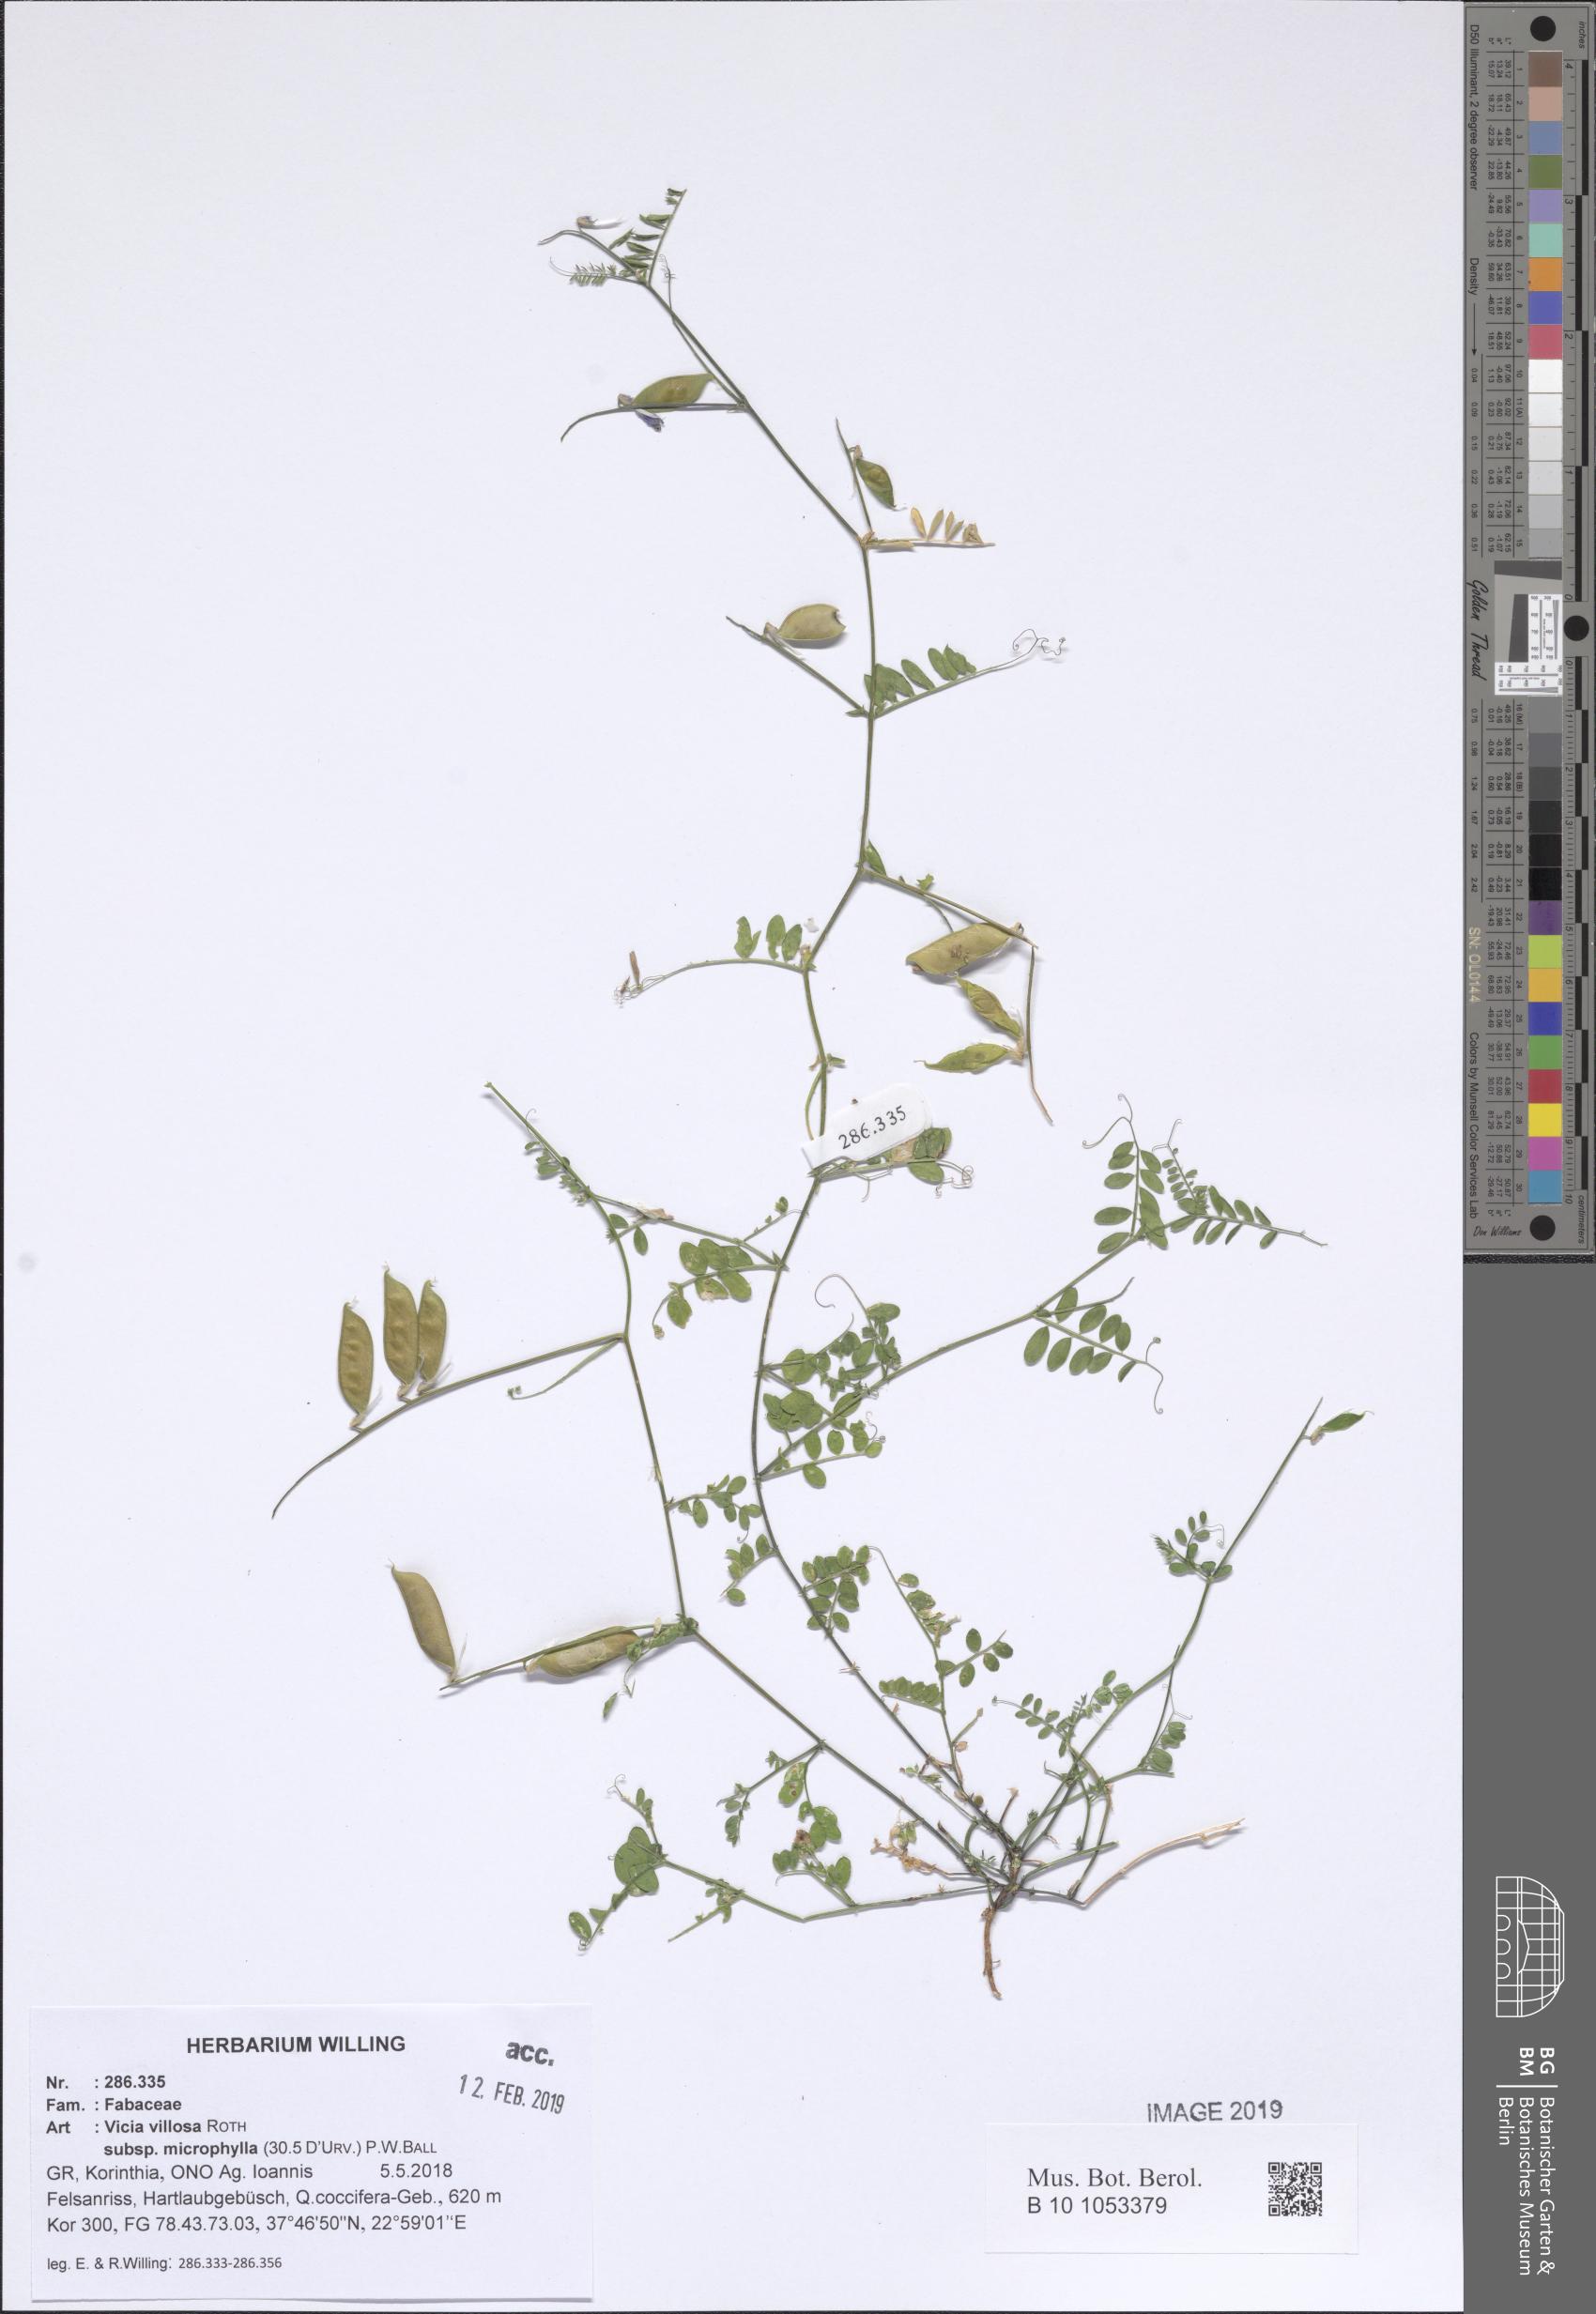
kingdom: Plantae
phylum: Tracheophyta
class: Magnoliopsida
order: Fabales
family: Fabaceae
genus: Vicia
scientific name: Vicia villosa
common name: Fodder vetch
